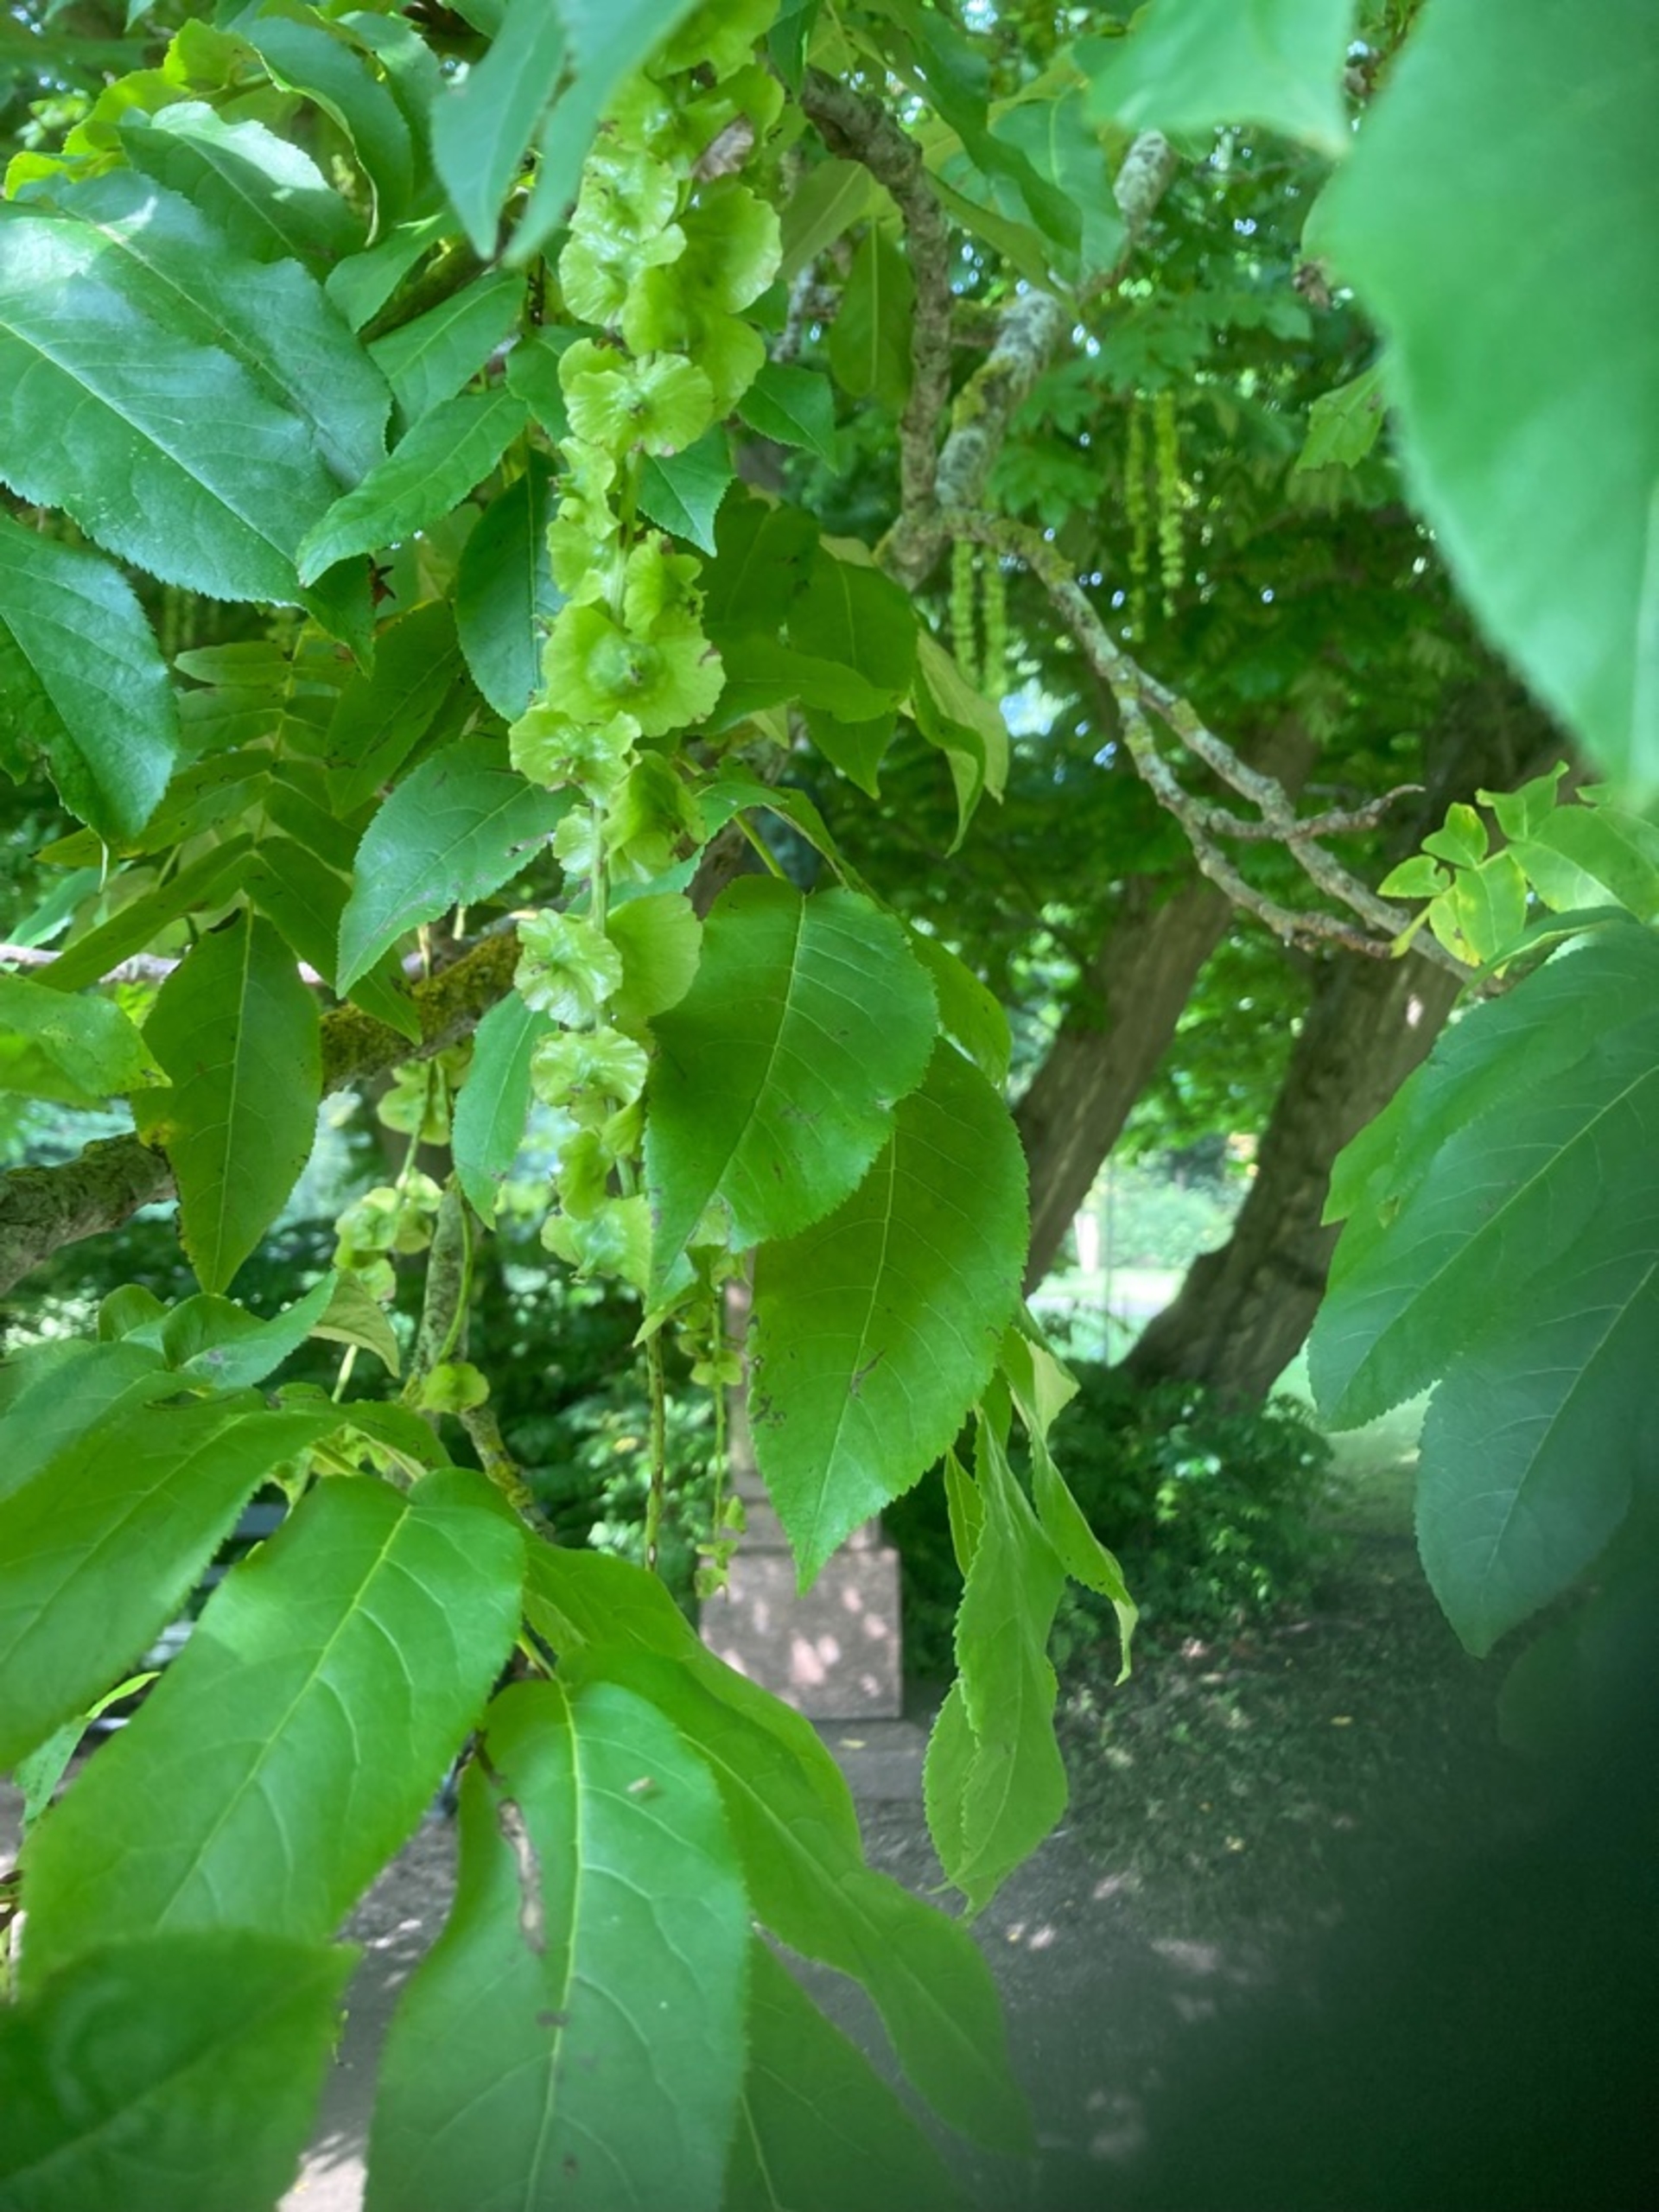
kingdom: Plantae
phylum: Tracheophyta
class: Magnoliopsida
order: Fagales
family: Juglandaceae
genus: Pterocarya
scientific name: Pterocarya fraxinifolia
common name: Kaukasisk vingevalnød
